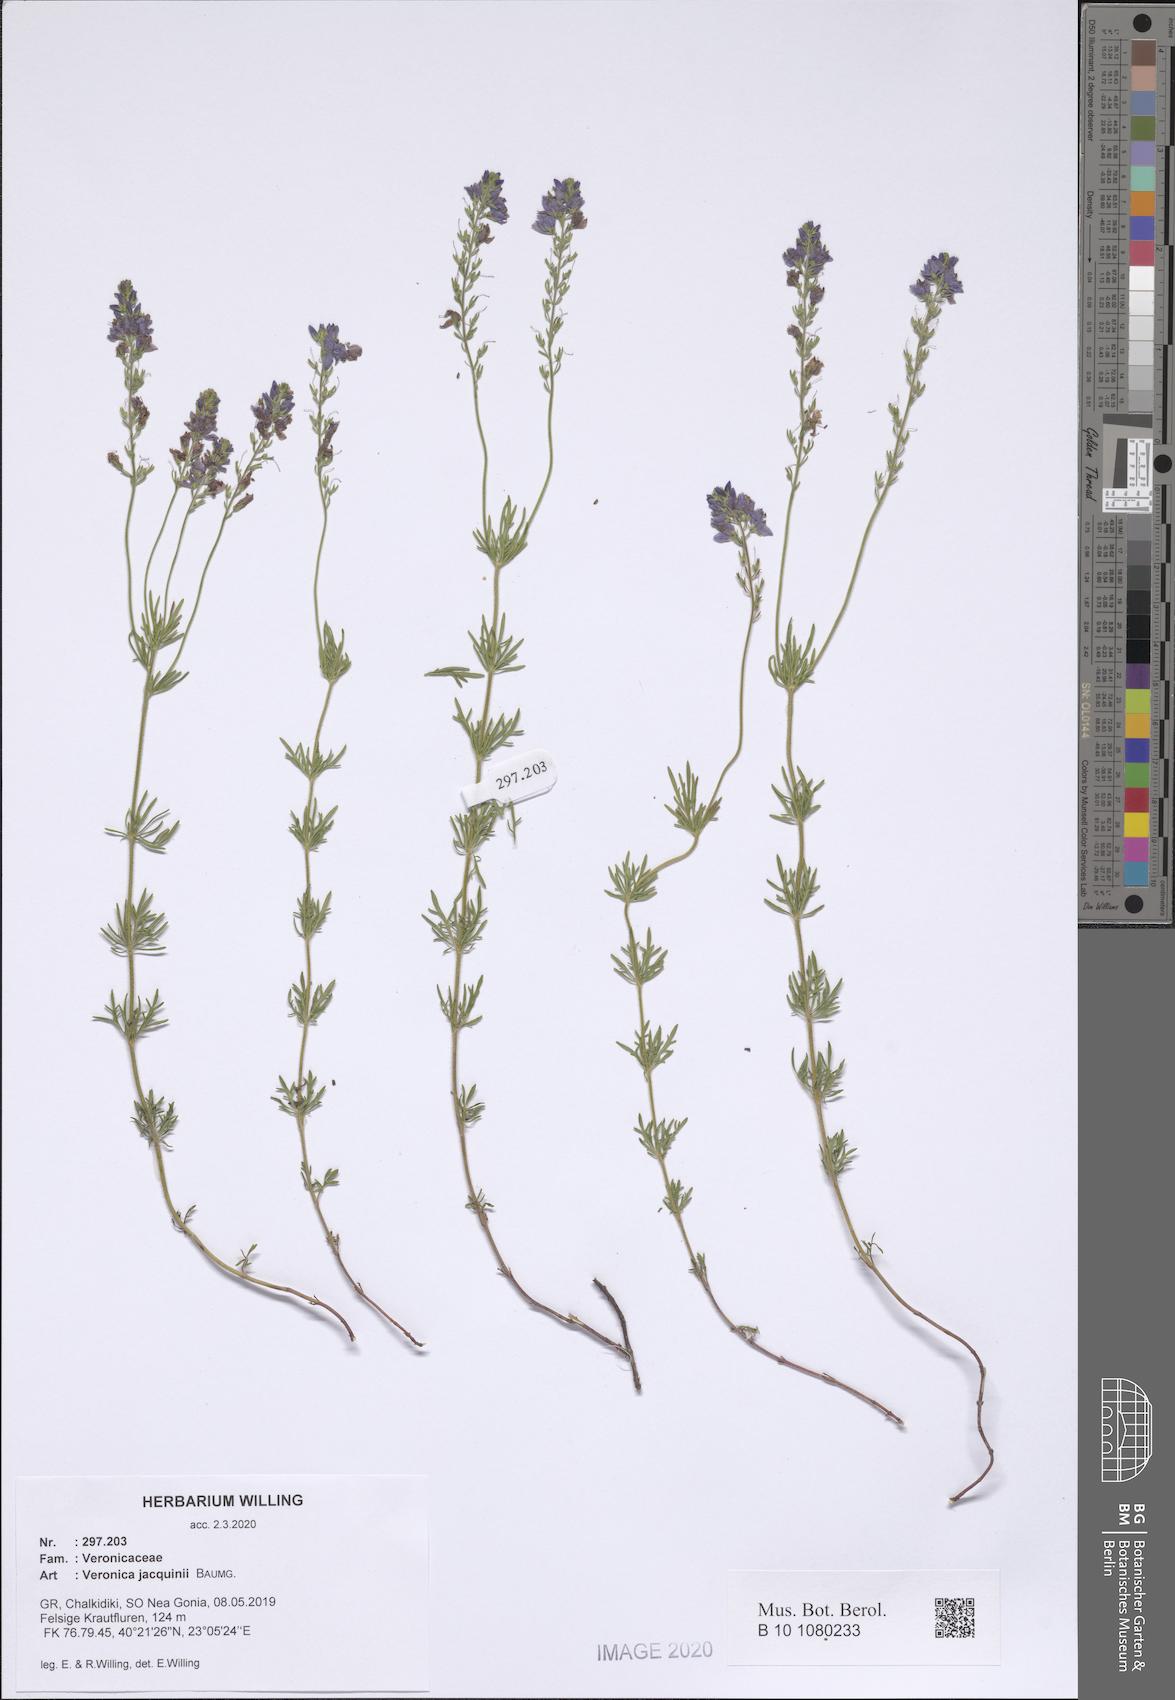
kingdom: Plantae
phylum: Tracheophyta
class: Magnoliopsida
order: Lamiales
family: Plantaginaceae
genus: Veronica
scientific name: Veronica austriaca
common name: Large speedwell
